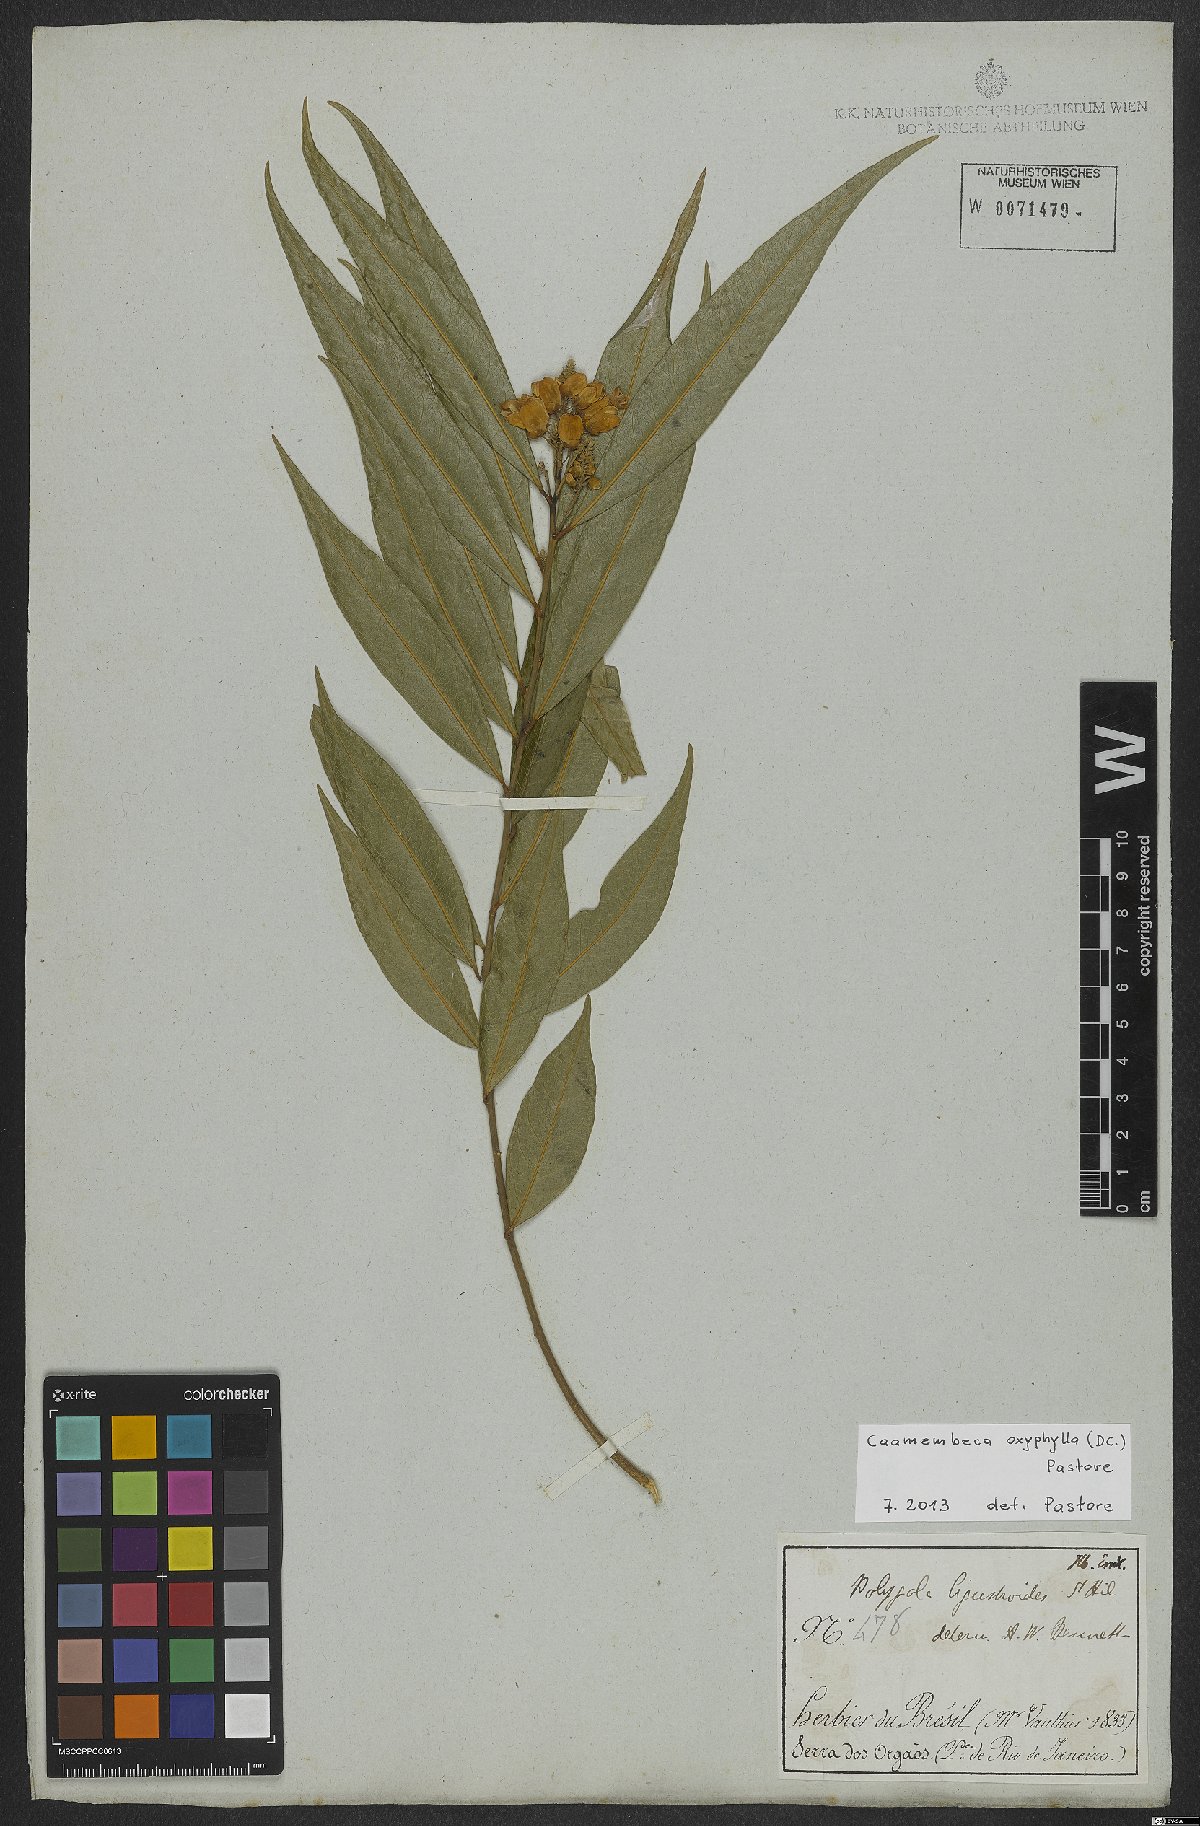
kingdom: Plantae
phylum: Tracheophyta
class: Magnoliopsida
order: Fabales
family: Polygalaceae
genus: Caamembeca
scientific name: Caamembeca oxyphylla
